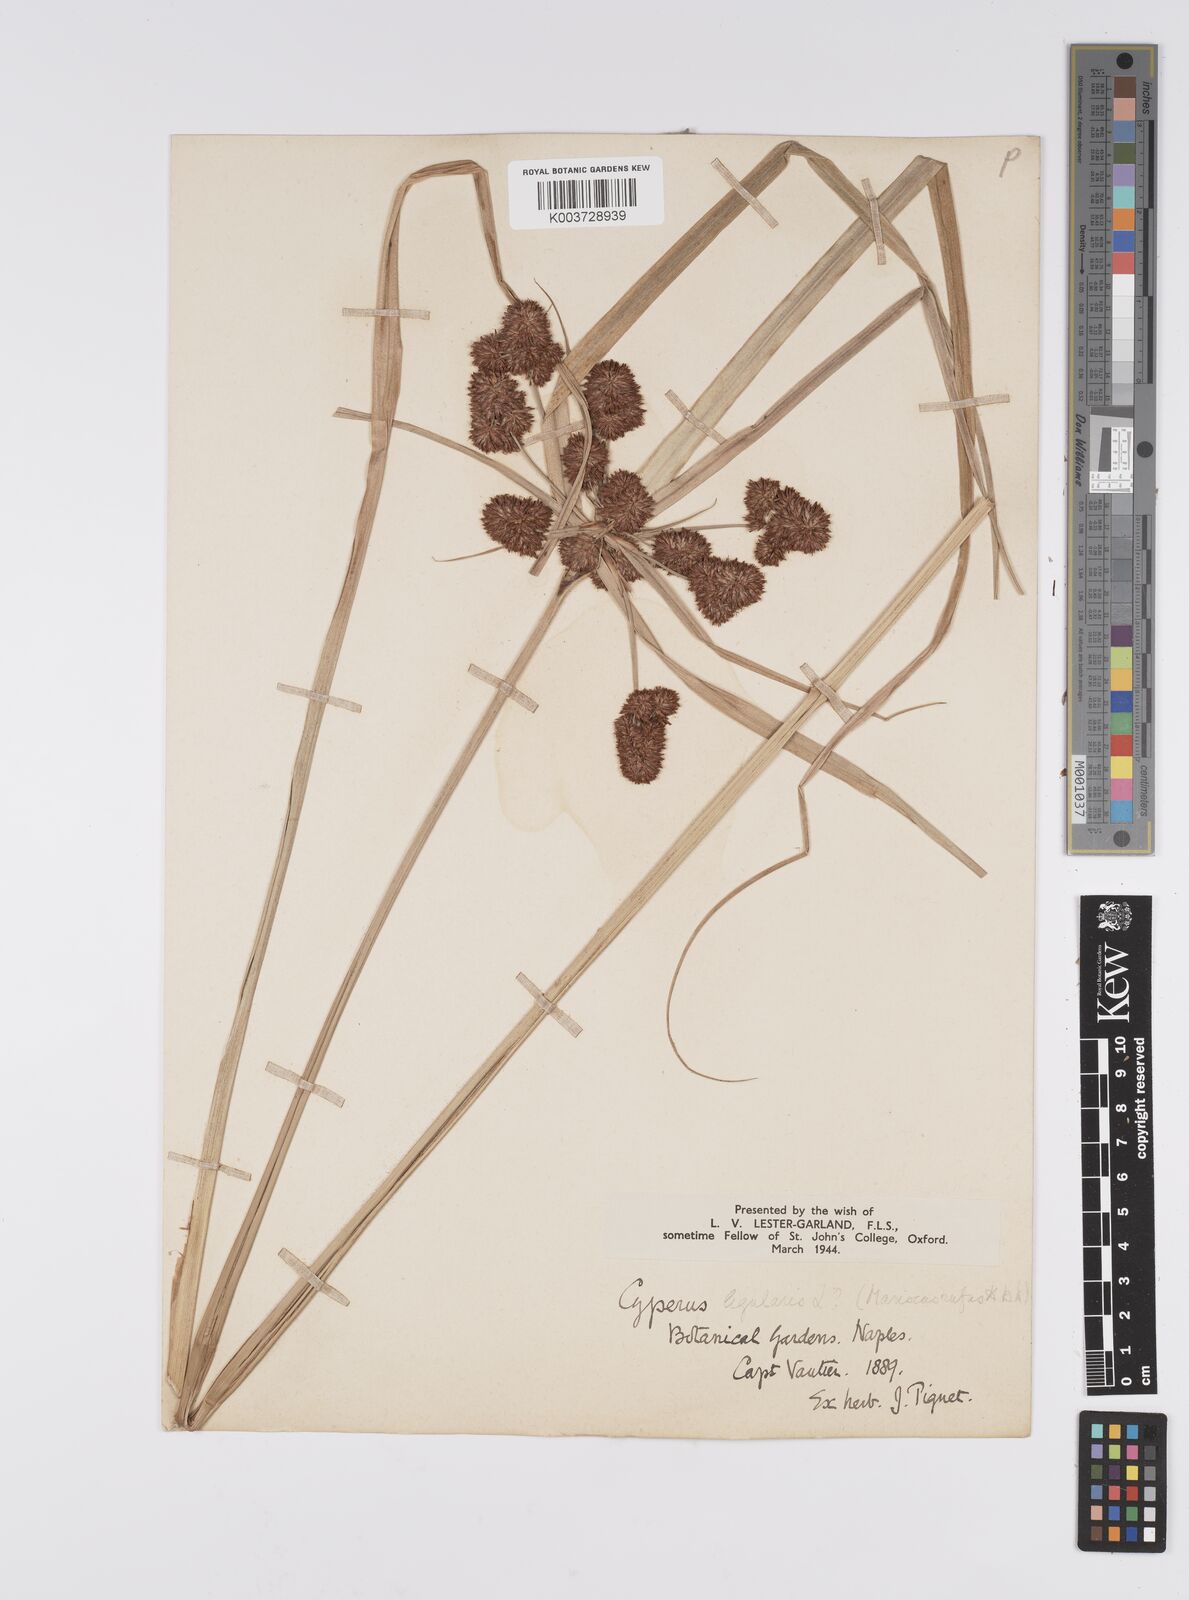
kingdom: Plantae
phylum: Tracheophyta
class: Liliopsida
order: Poales
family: Cyperaceae
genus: Cyperus
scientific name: Cyperus owanii
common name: Owan's flatsedge
